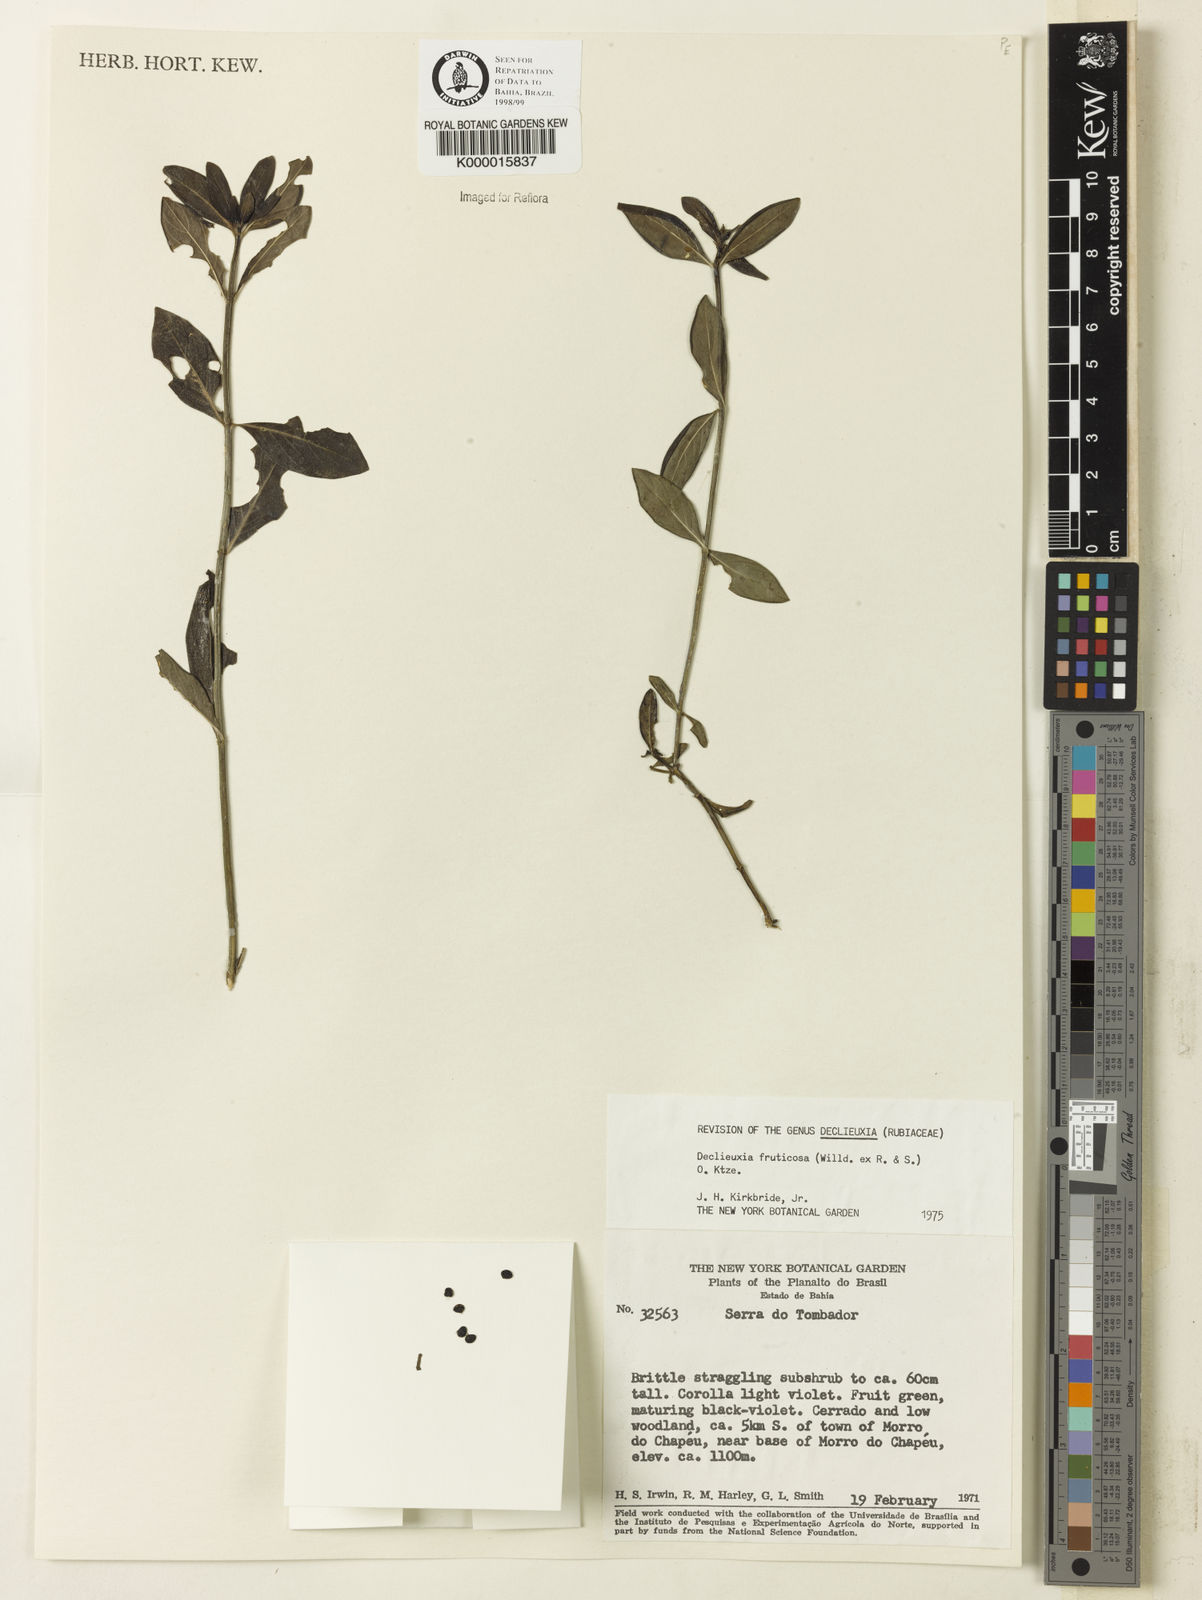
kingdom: Plantae
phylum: Tracheophyta
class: Magnoliopsida
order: Gentianales
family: Rubiaceae
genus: Declieuxia
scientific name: Declieuxia fruticosa
